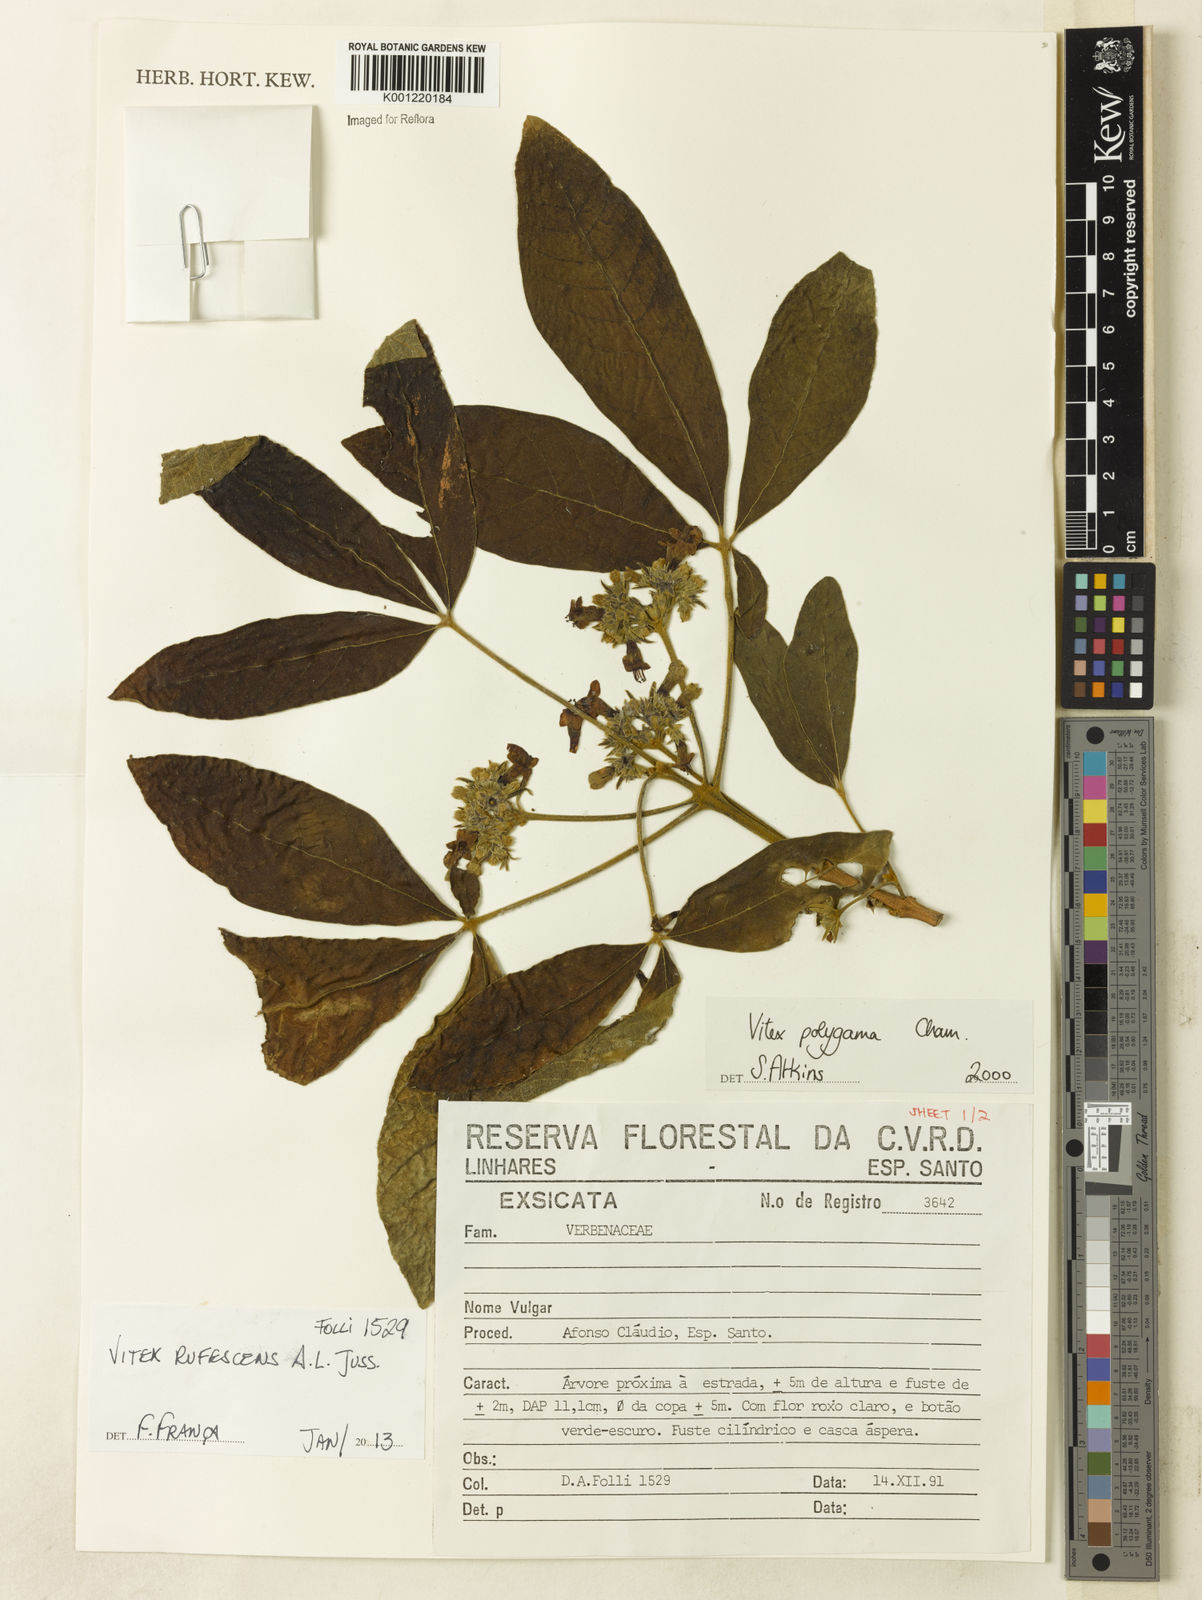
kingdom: Plantae
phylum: Tracheophyta
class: Magnoliopsida
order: Lamiales
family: Lamiaceae
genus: Vitex
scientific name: Vitex rufescens
